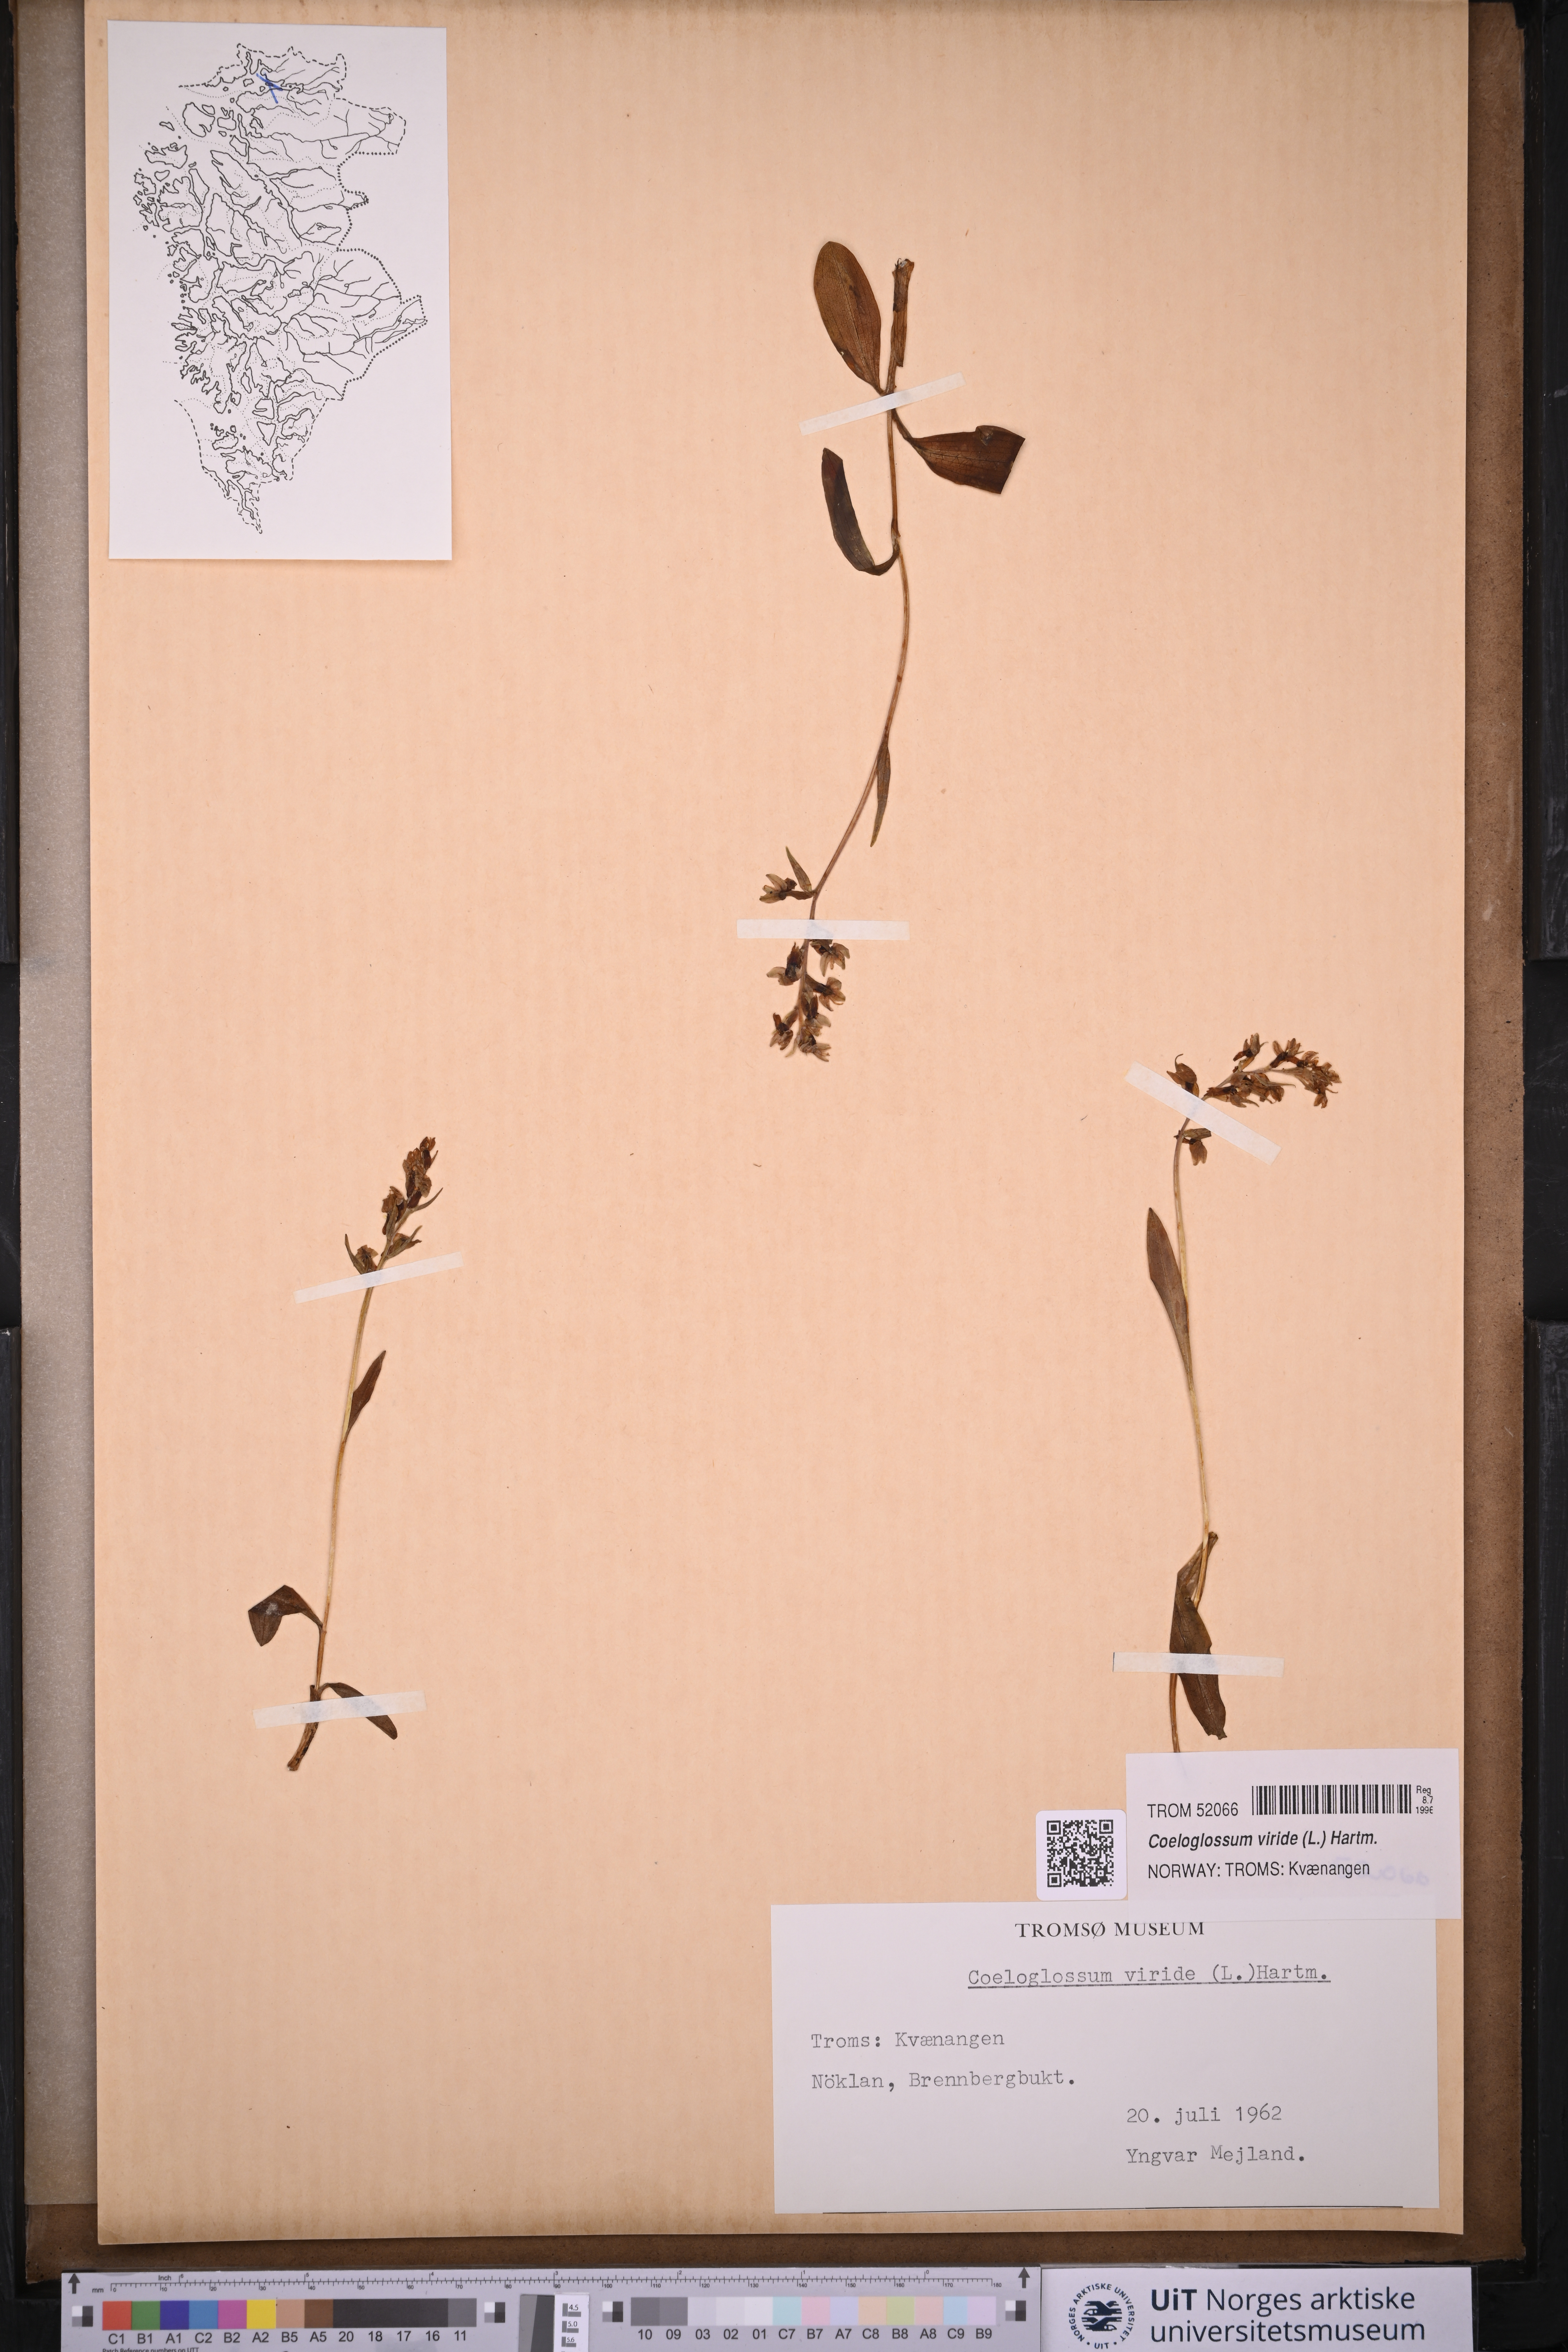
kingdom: Plantae
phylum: Tracheophyta
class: Liliopsida
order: Asparagales
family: Orchidaceae
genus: Dactylorhiza
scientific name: Dactylorhiza viridis
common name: Longbract frog orchid
